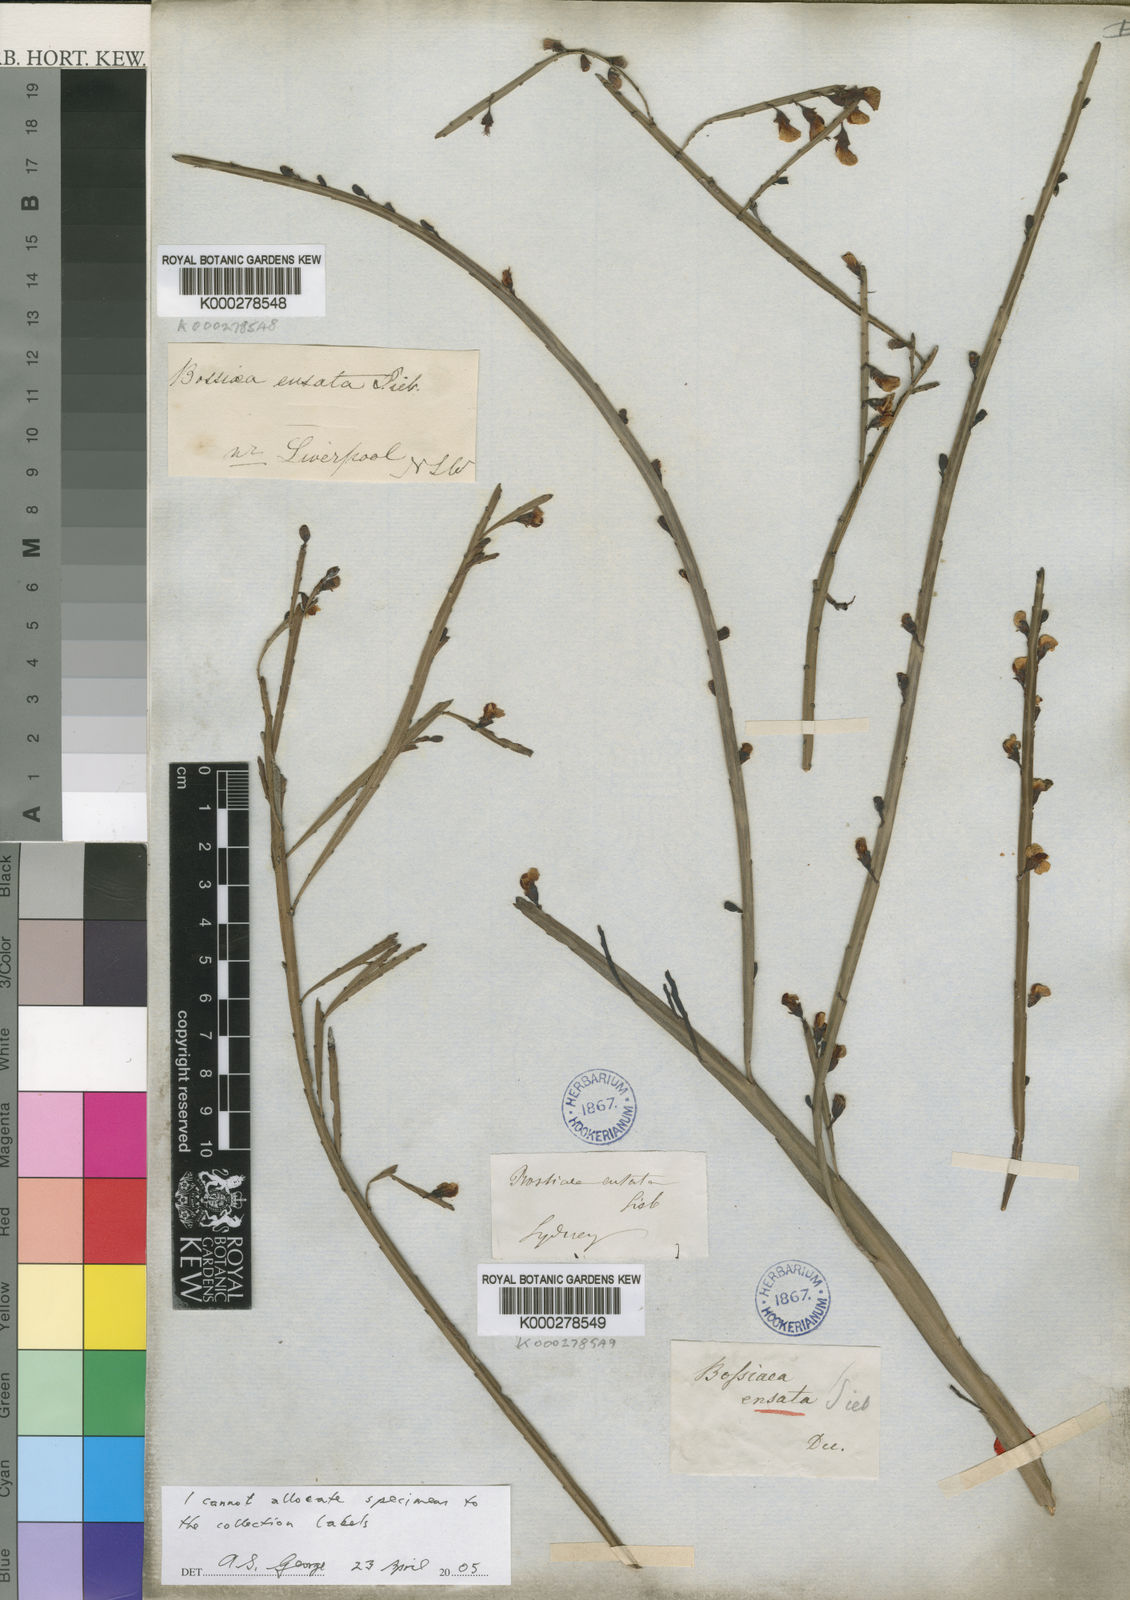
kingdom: Plantae
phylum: Tracheophyta
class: Magnoliopsida
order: Fabales
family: Fabaceae
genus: Bossiaea
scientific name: Bossiaea ensata
